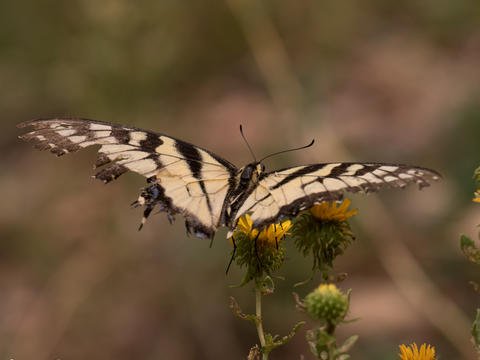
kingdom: Animalia
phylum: Arthropoda
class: Insecta
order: Lepidoptera
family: Papilionidae
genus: Pterourus
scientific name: Pterourus rutulus
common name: Western Tiger Swallowtail
